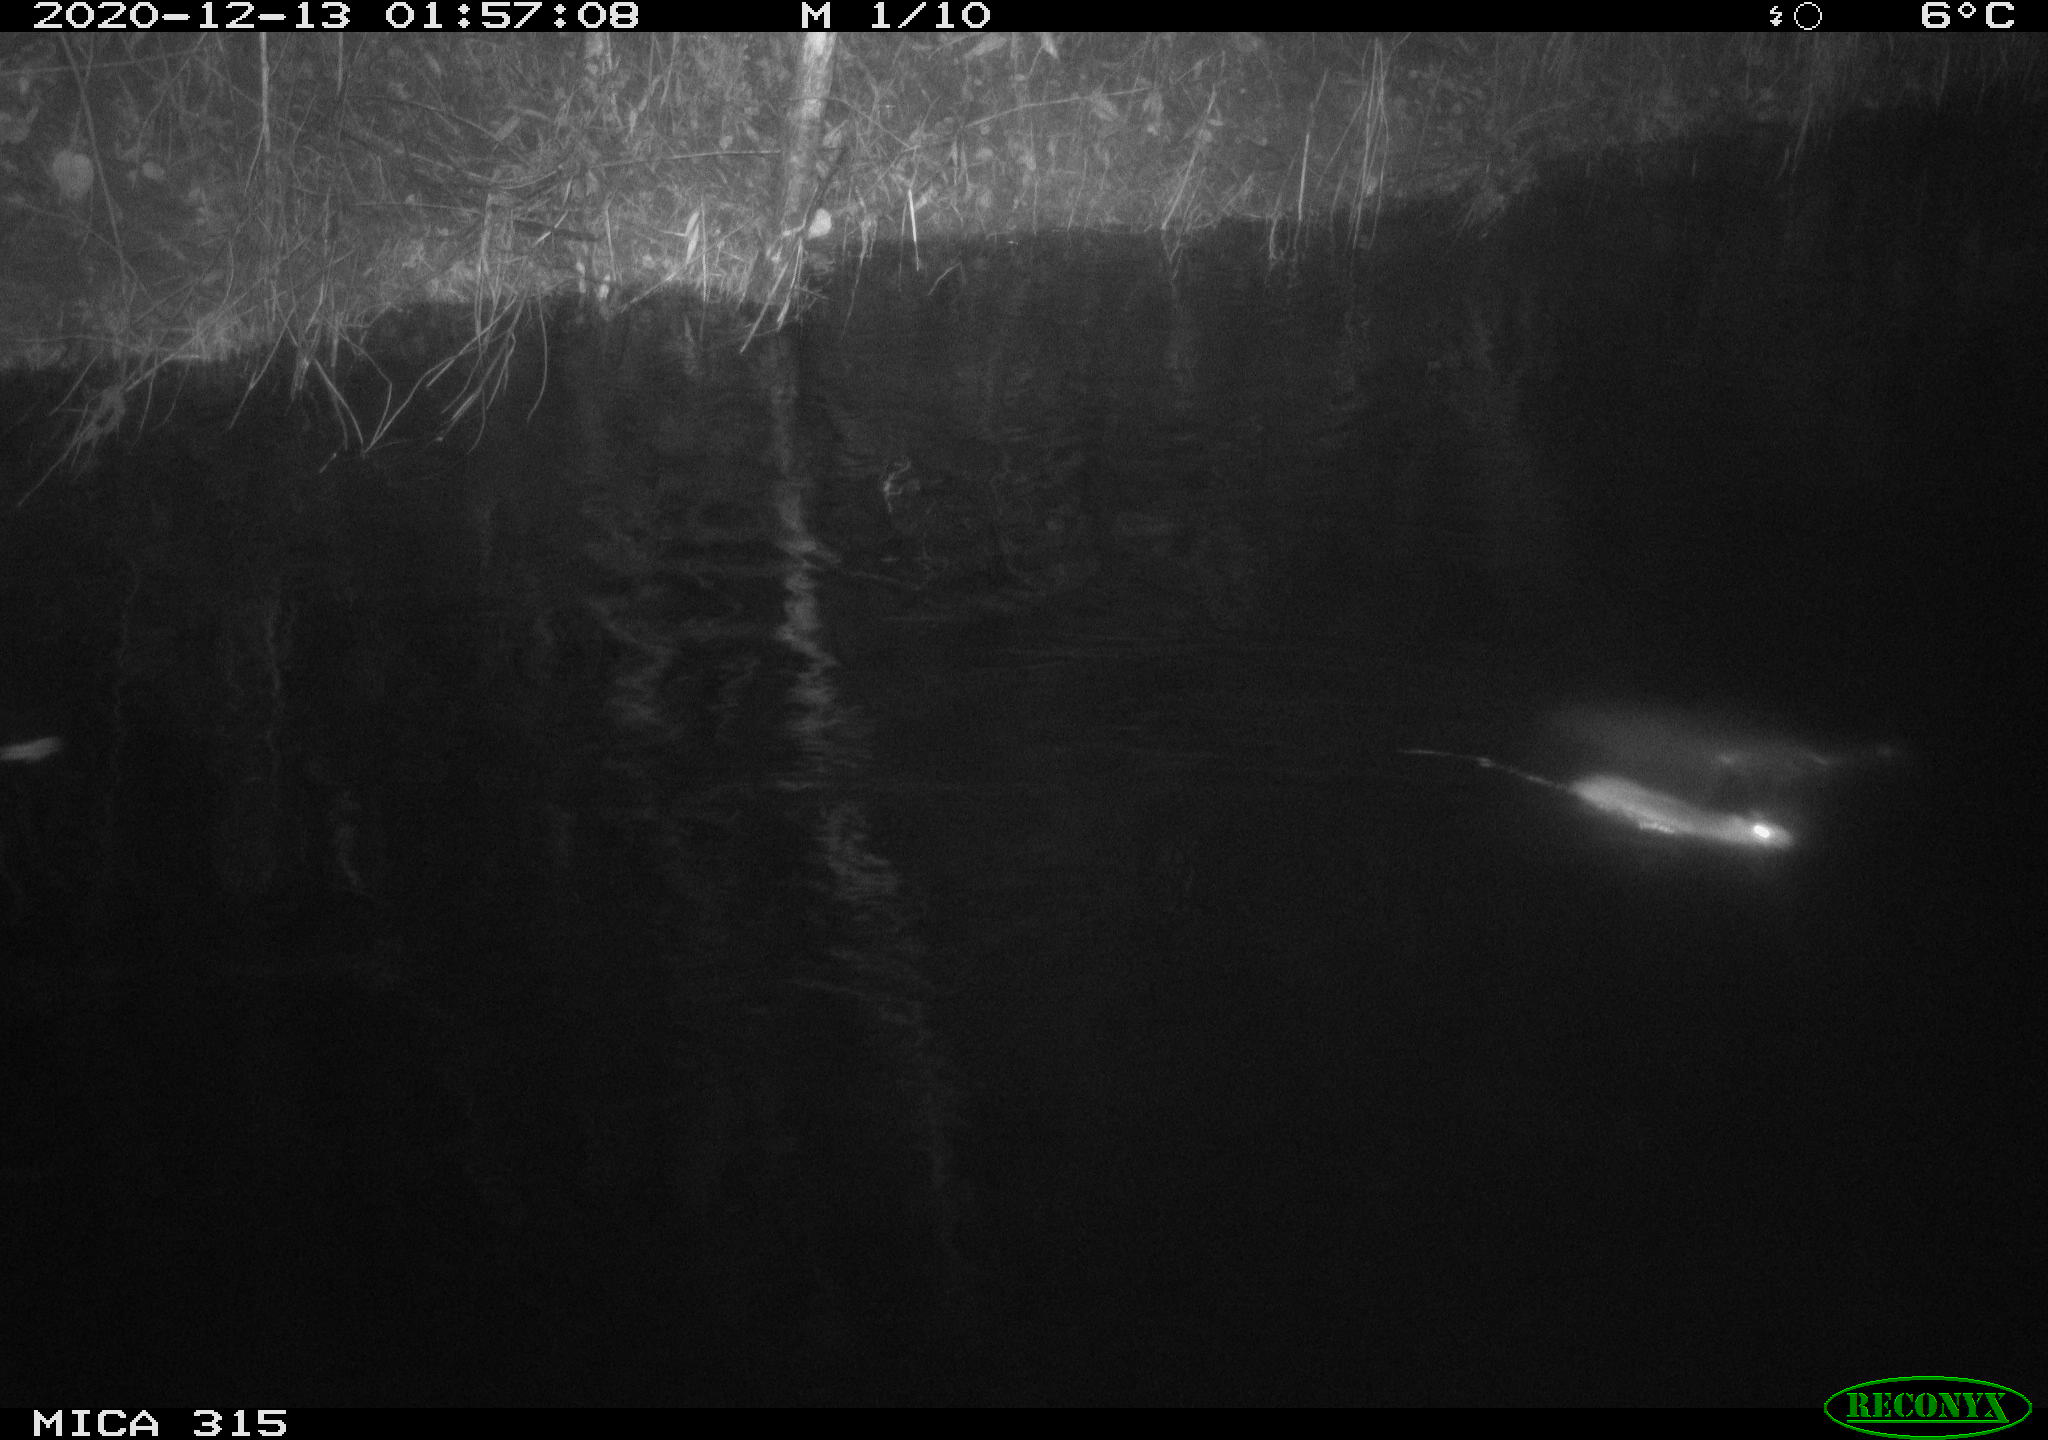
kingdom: Animalia
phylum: Chordata
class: Mammalia
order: Rodentia
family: Muridae
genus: Rattus
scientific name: Rattus norvegicus
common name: Brown rat
